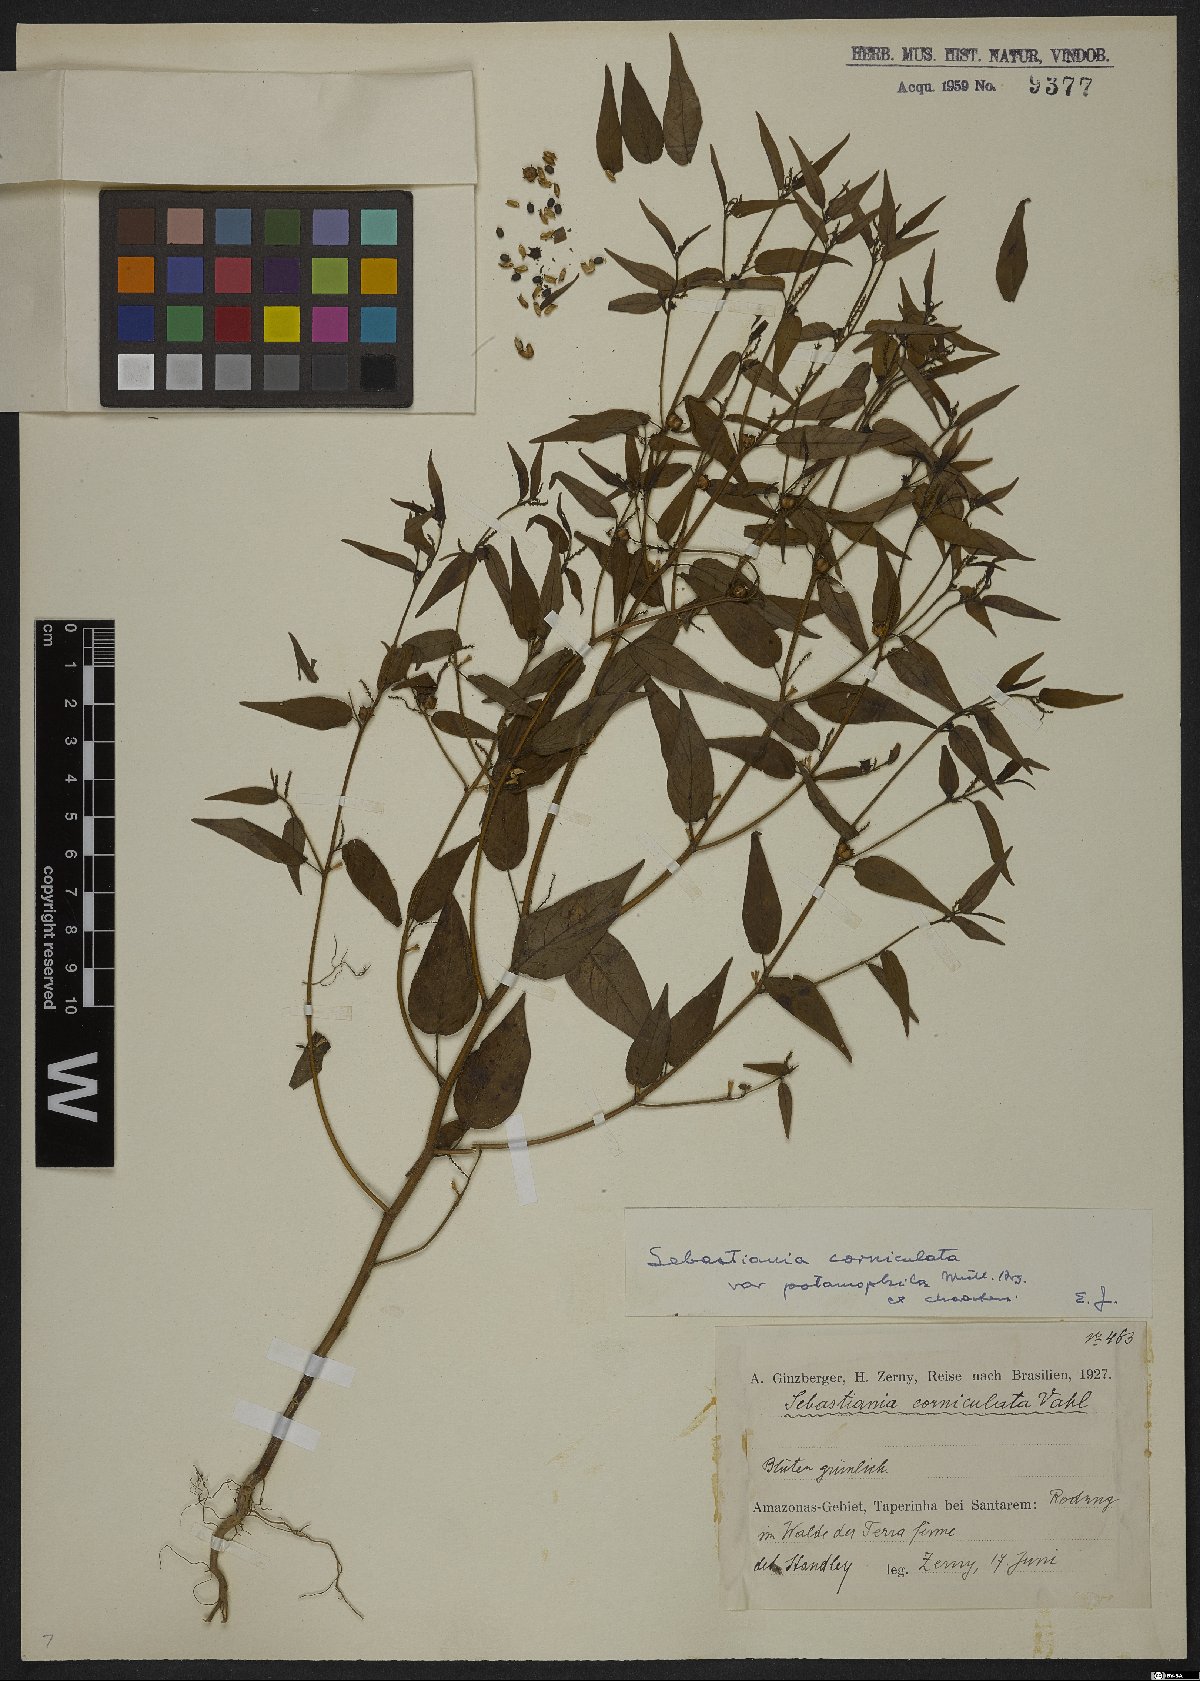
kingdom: Plantae
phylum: Tracheophyta
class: Magnoliopsida
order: Malpighiales
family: Euphorbiaceae
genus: Microstachys
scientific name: Microstachys corniculata
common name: Hato tejas
